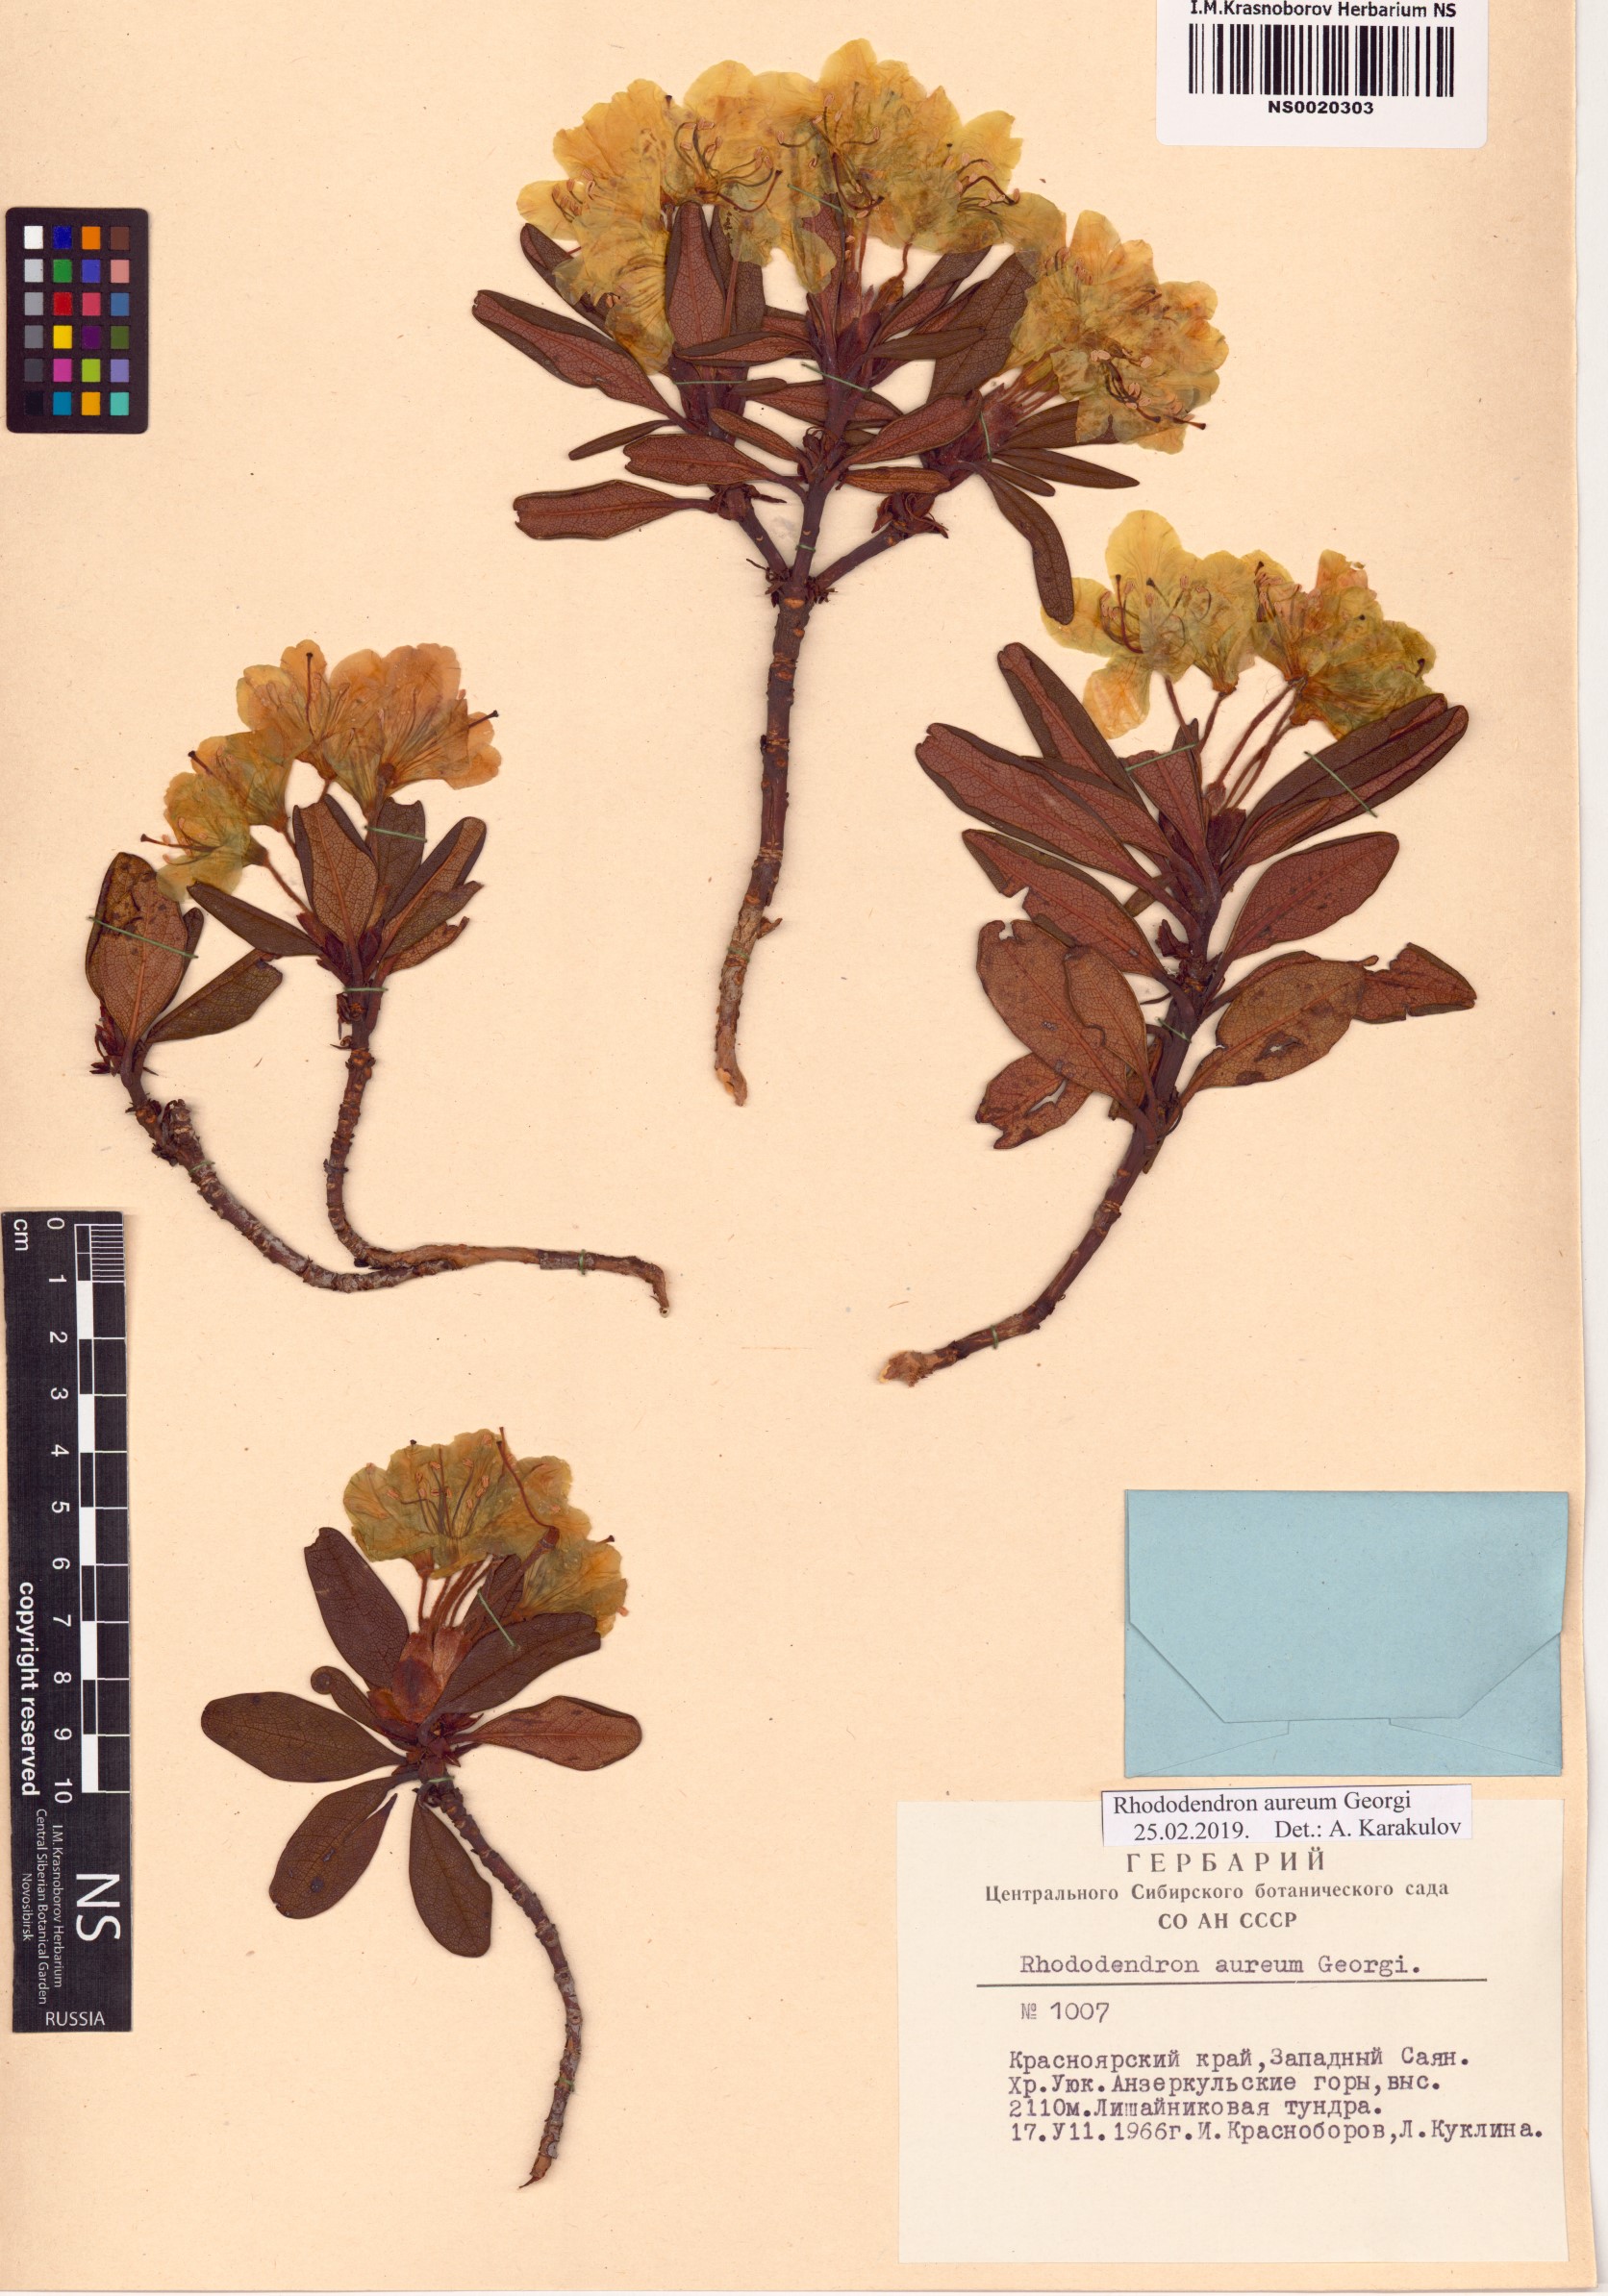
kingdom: Plantae
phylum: Tracheophyta
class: Magnoliopsida
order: Ericales
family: Ericaceae
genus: Rhododendron
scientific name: Rhododendron aureum
